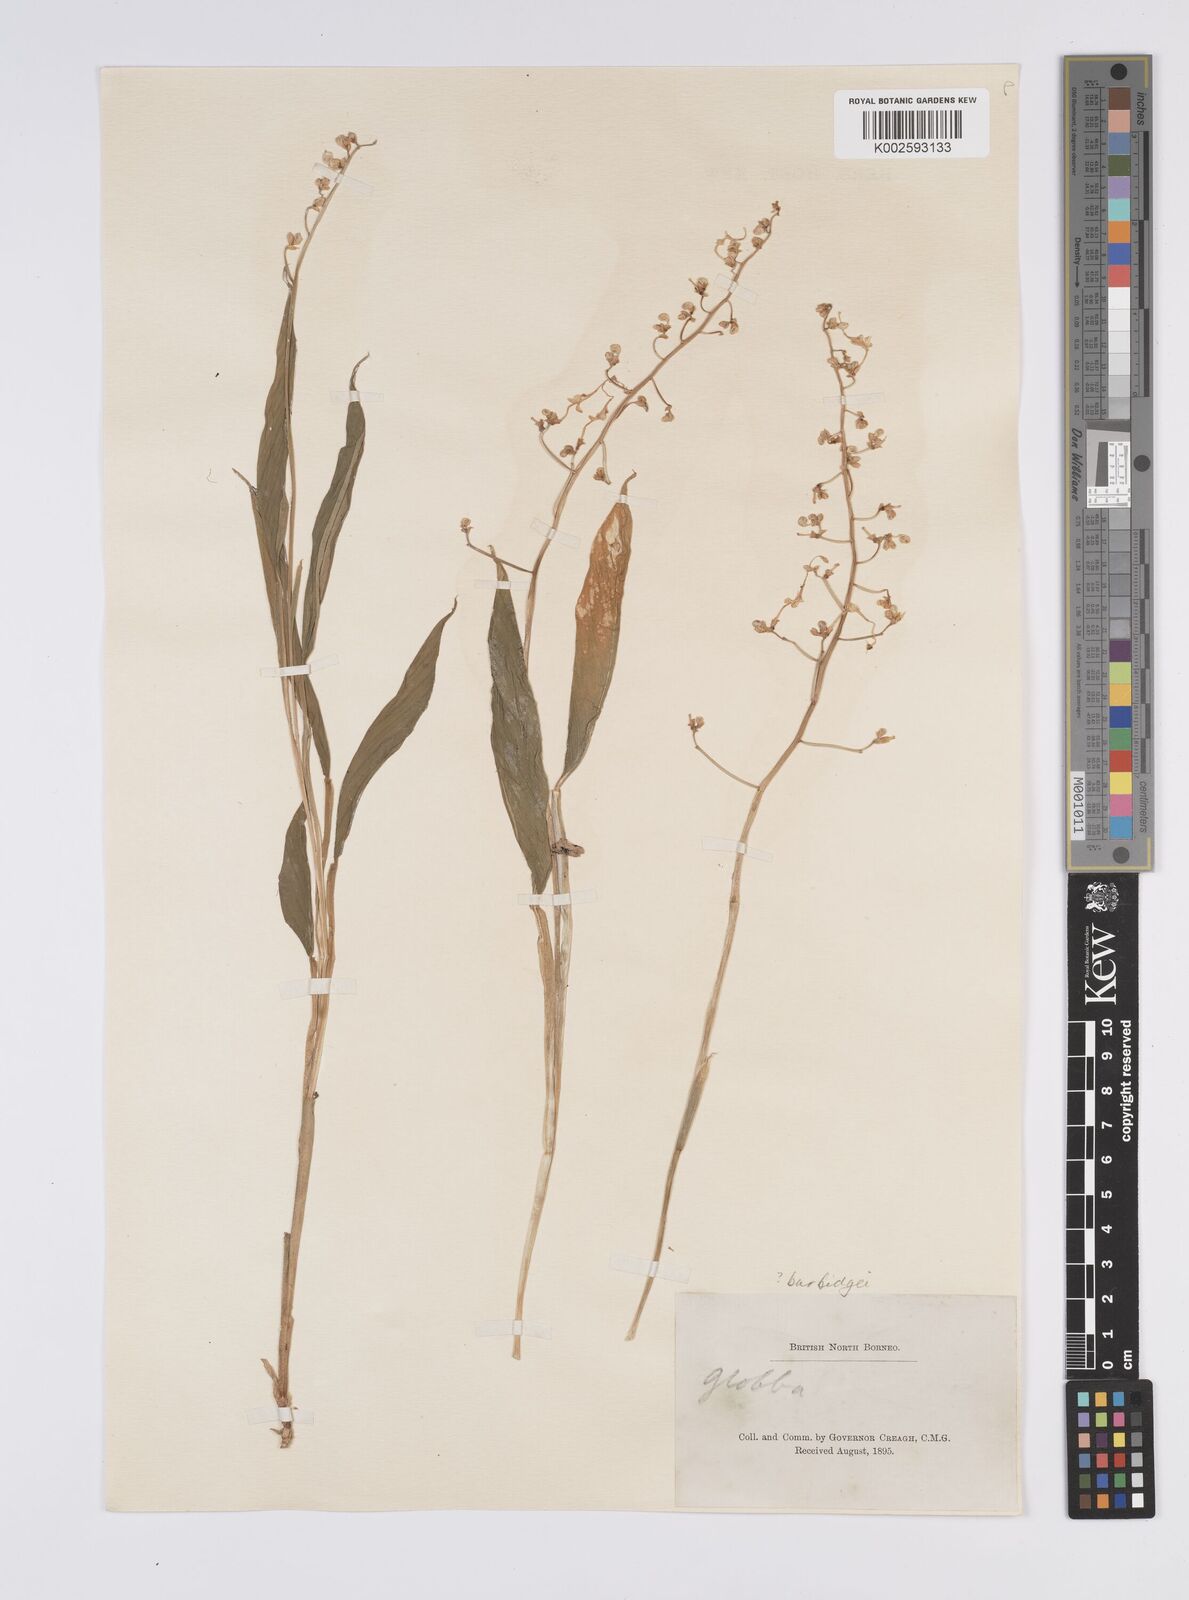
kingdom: Plantae
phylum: Tracheophyta
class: Liliopsida
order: Zingiberales
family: Zingiberaceae
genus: Globba
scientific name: Globba pendula
